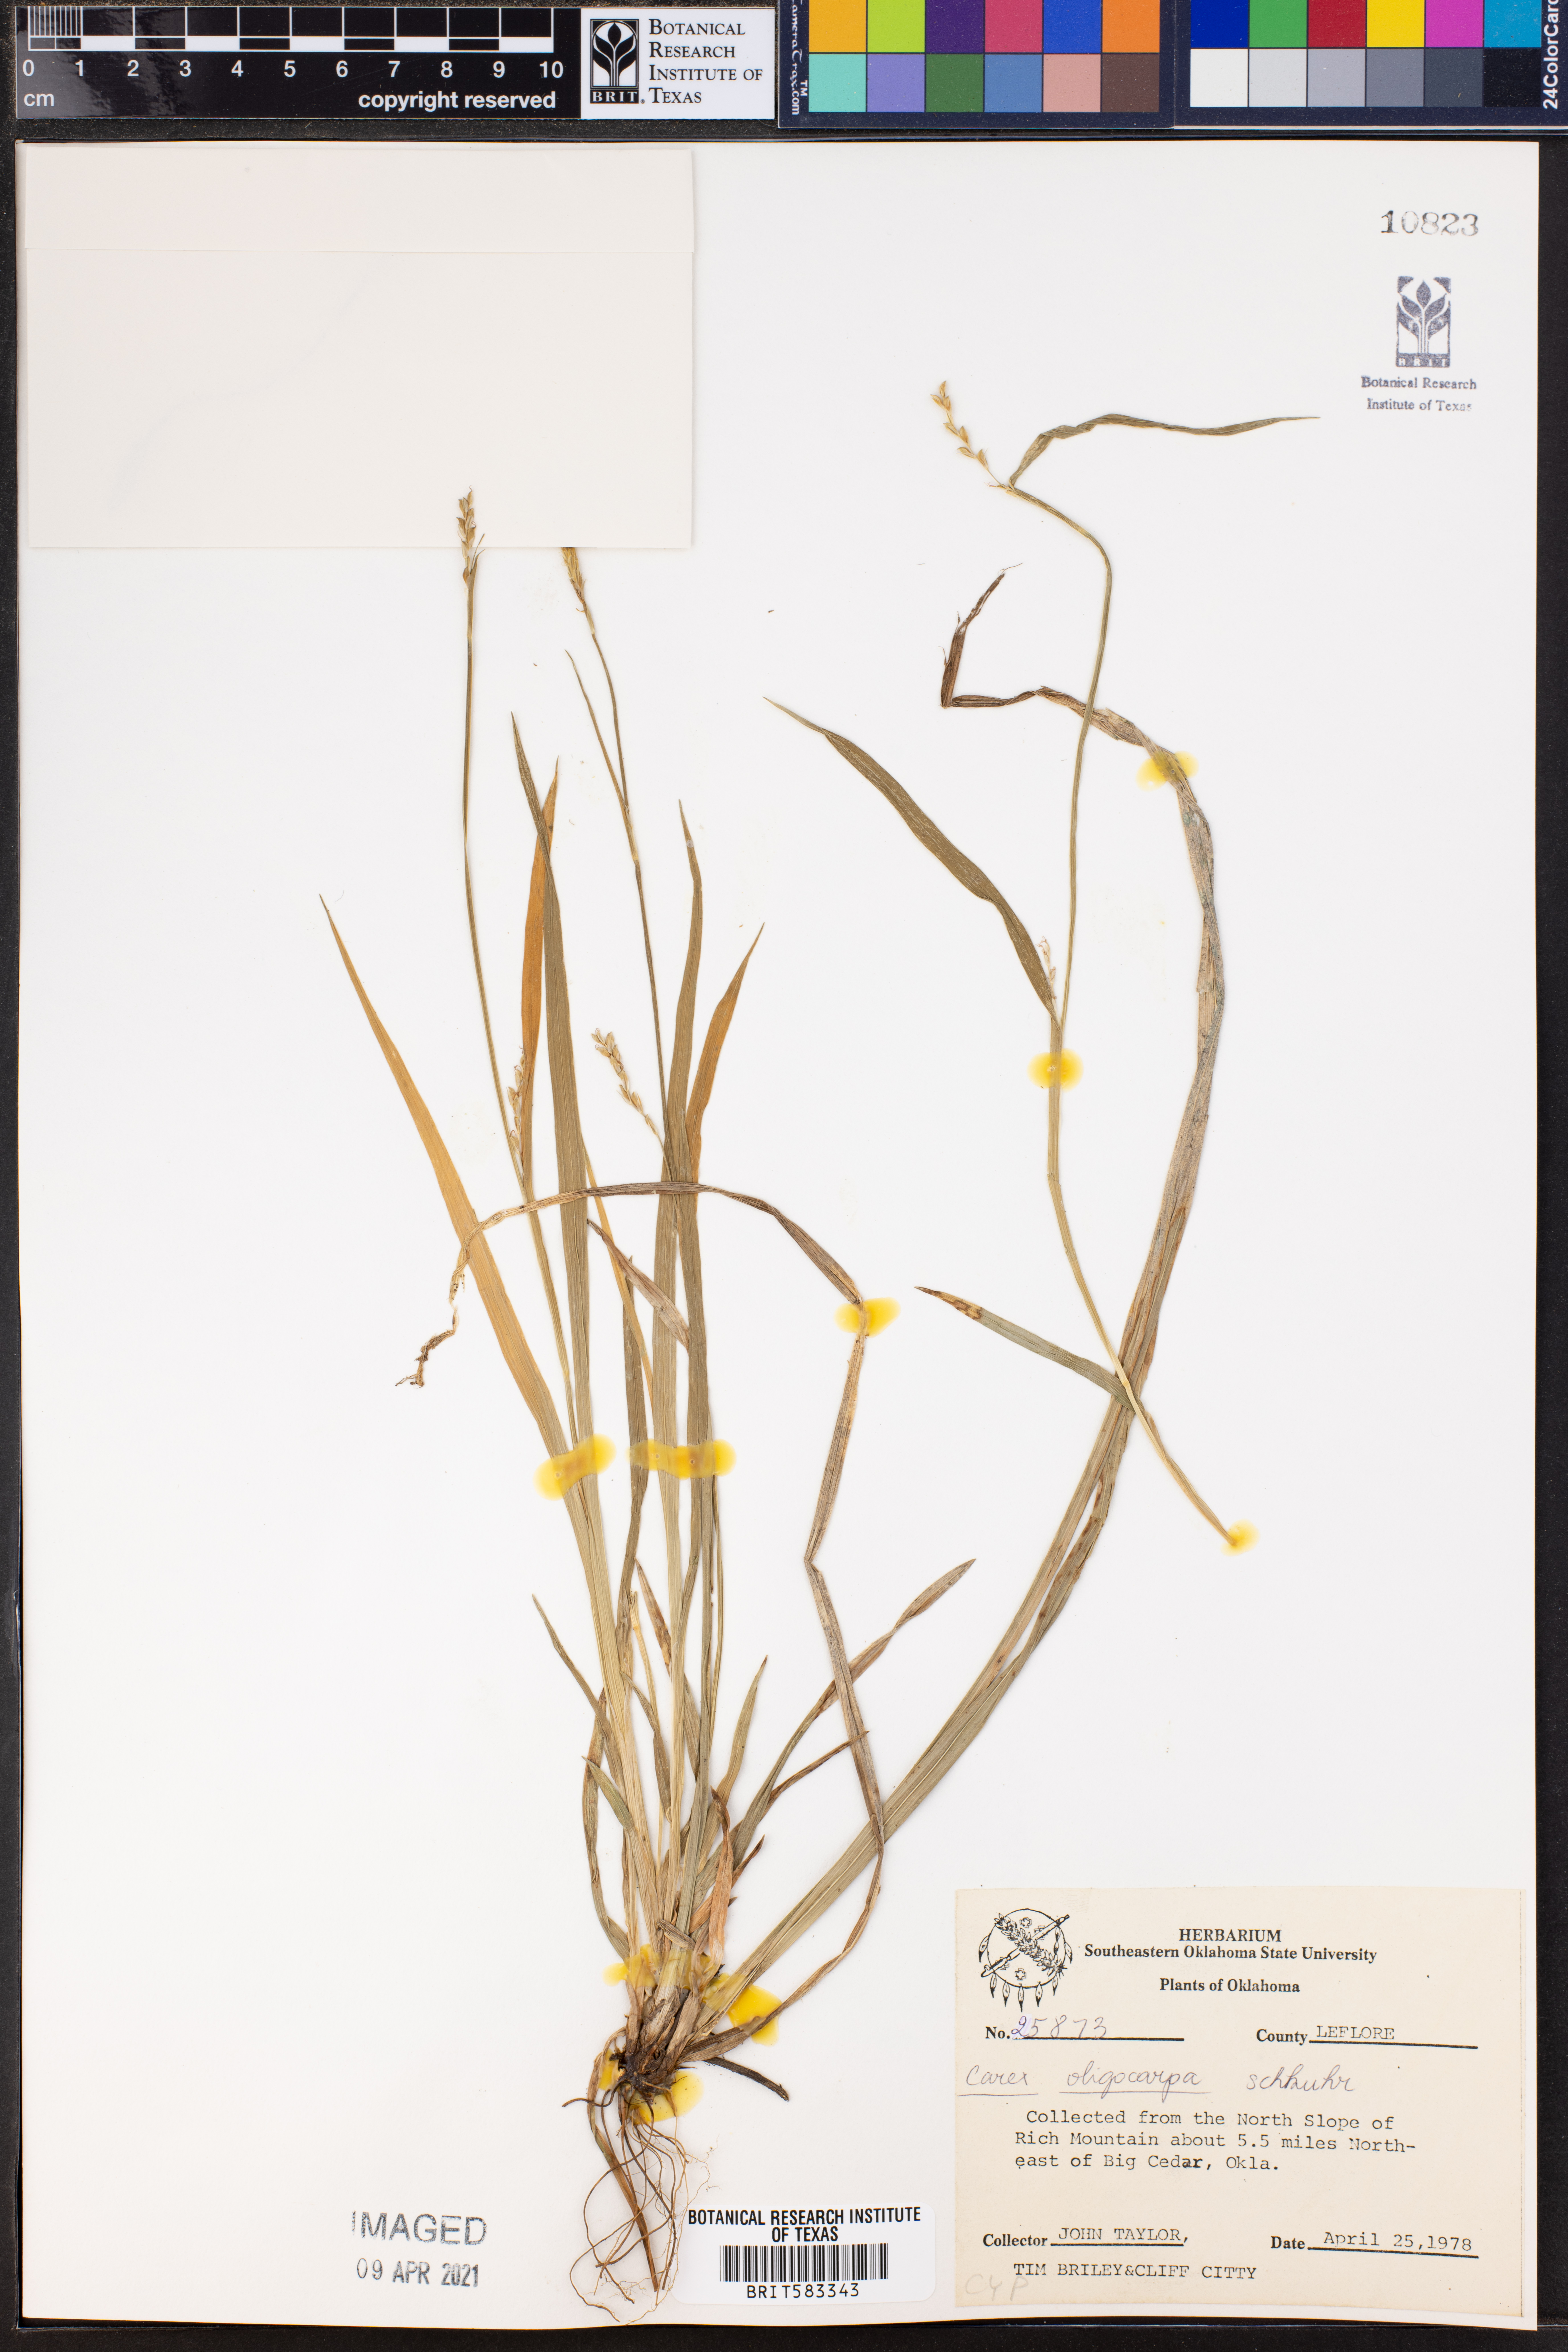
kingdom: Plantae
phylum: Tracheophyta
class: Liliopsida
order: Poales
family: Cyperaceae
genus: Carex
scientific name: Carex oligocarpa
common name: Eastern few-fruited sedge
